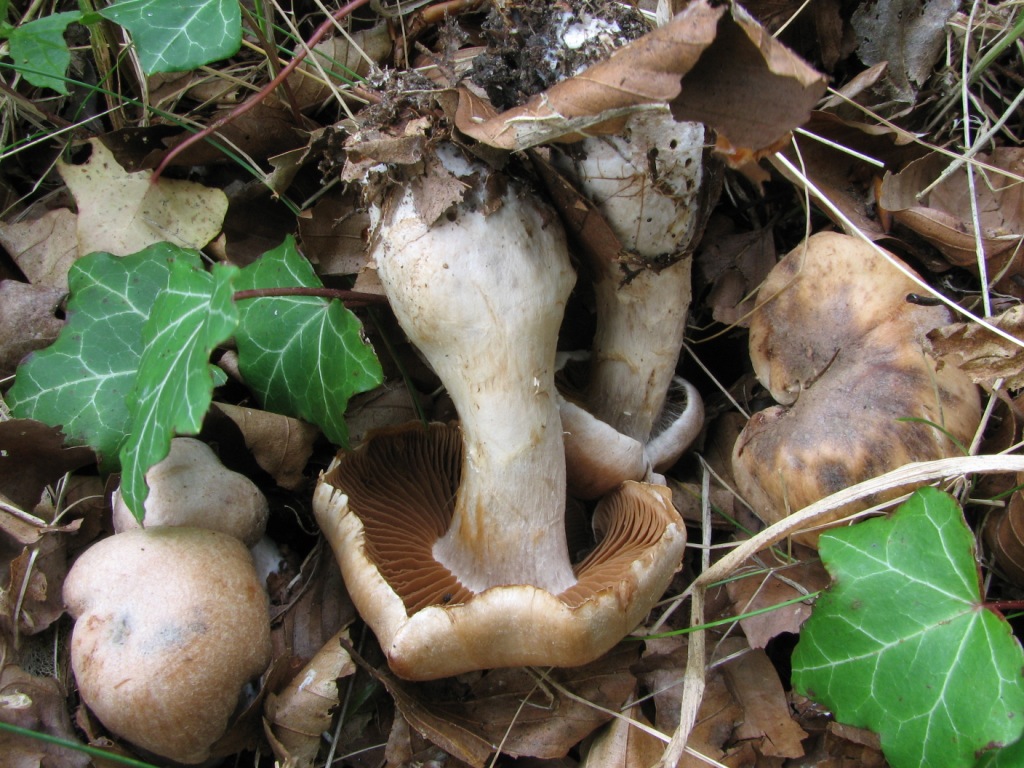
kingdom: Fungi
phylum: Basidiomycota
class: Agaricomycetes
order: Agaricales
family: Cortinariaceae
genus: Cortinarius
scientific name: Cortinarius turgidulus
